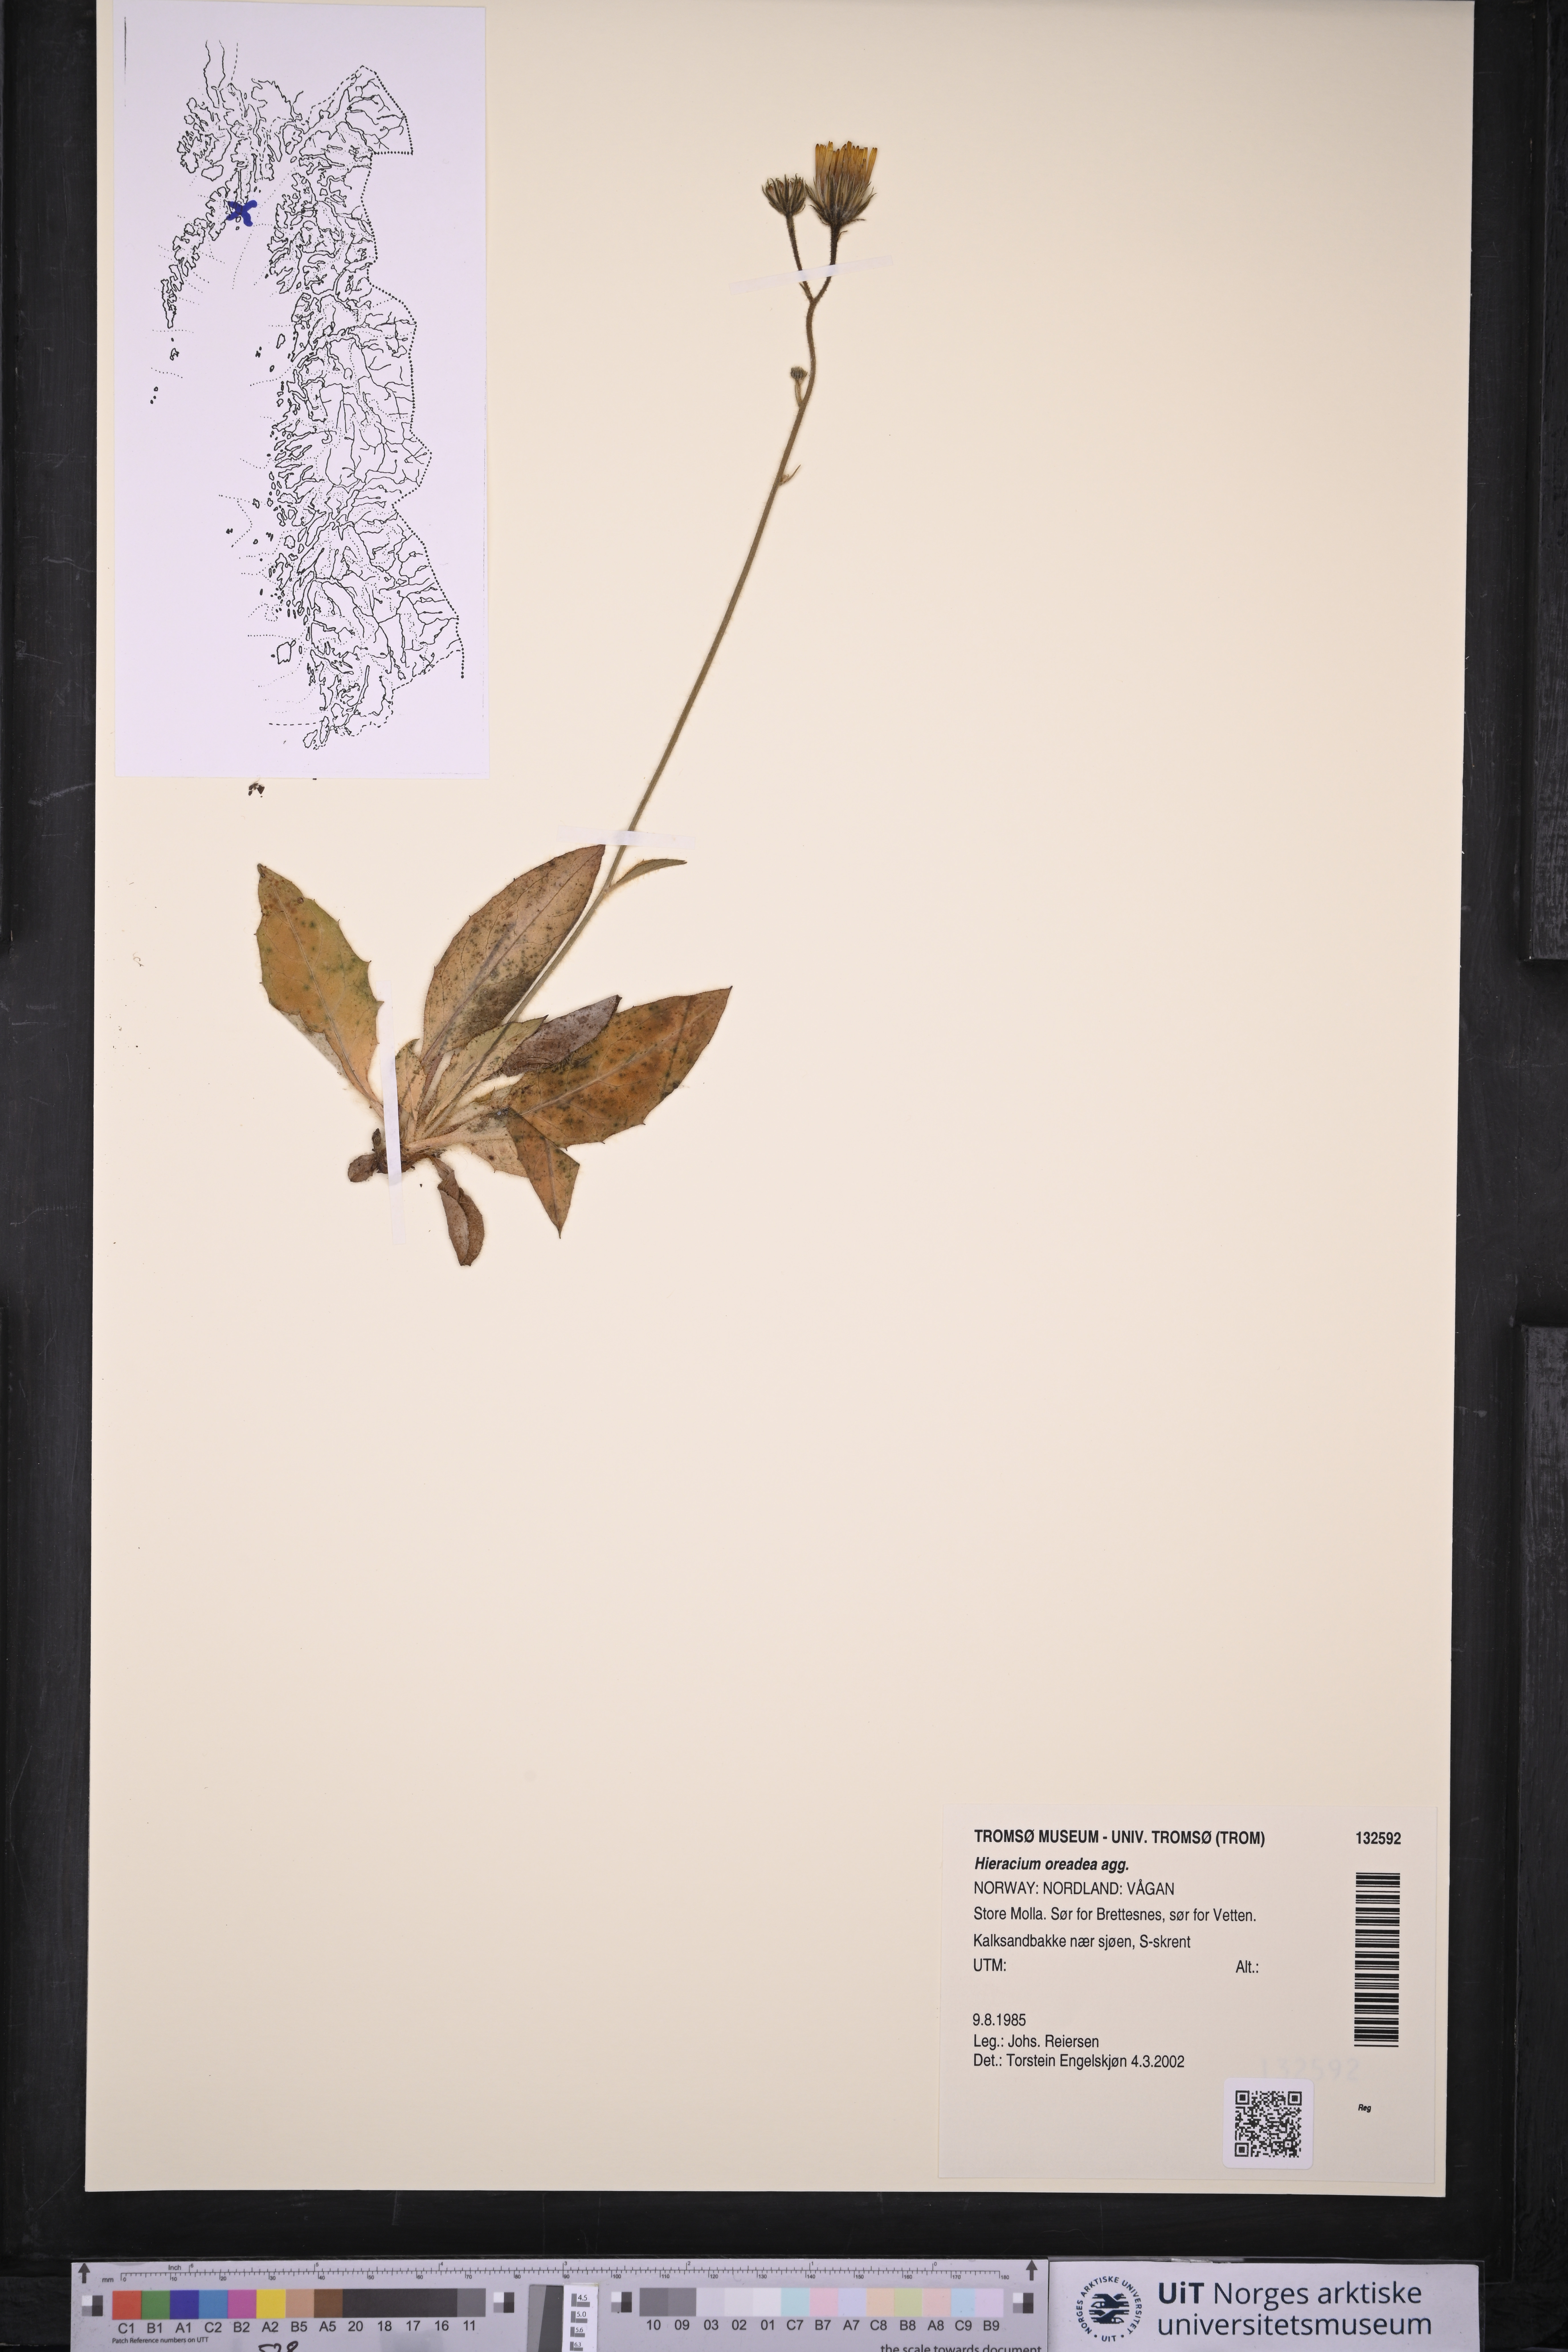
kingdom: Plantae
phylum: Tracheophyta
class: Magnoliopsida
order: Asterales
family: Asteraceae
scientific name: Asteraceae
